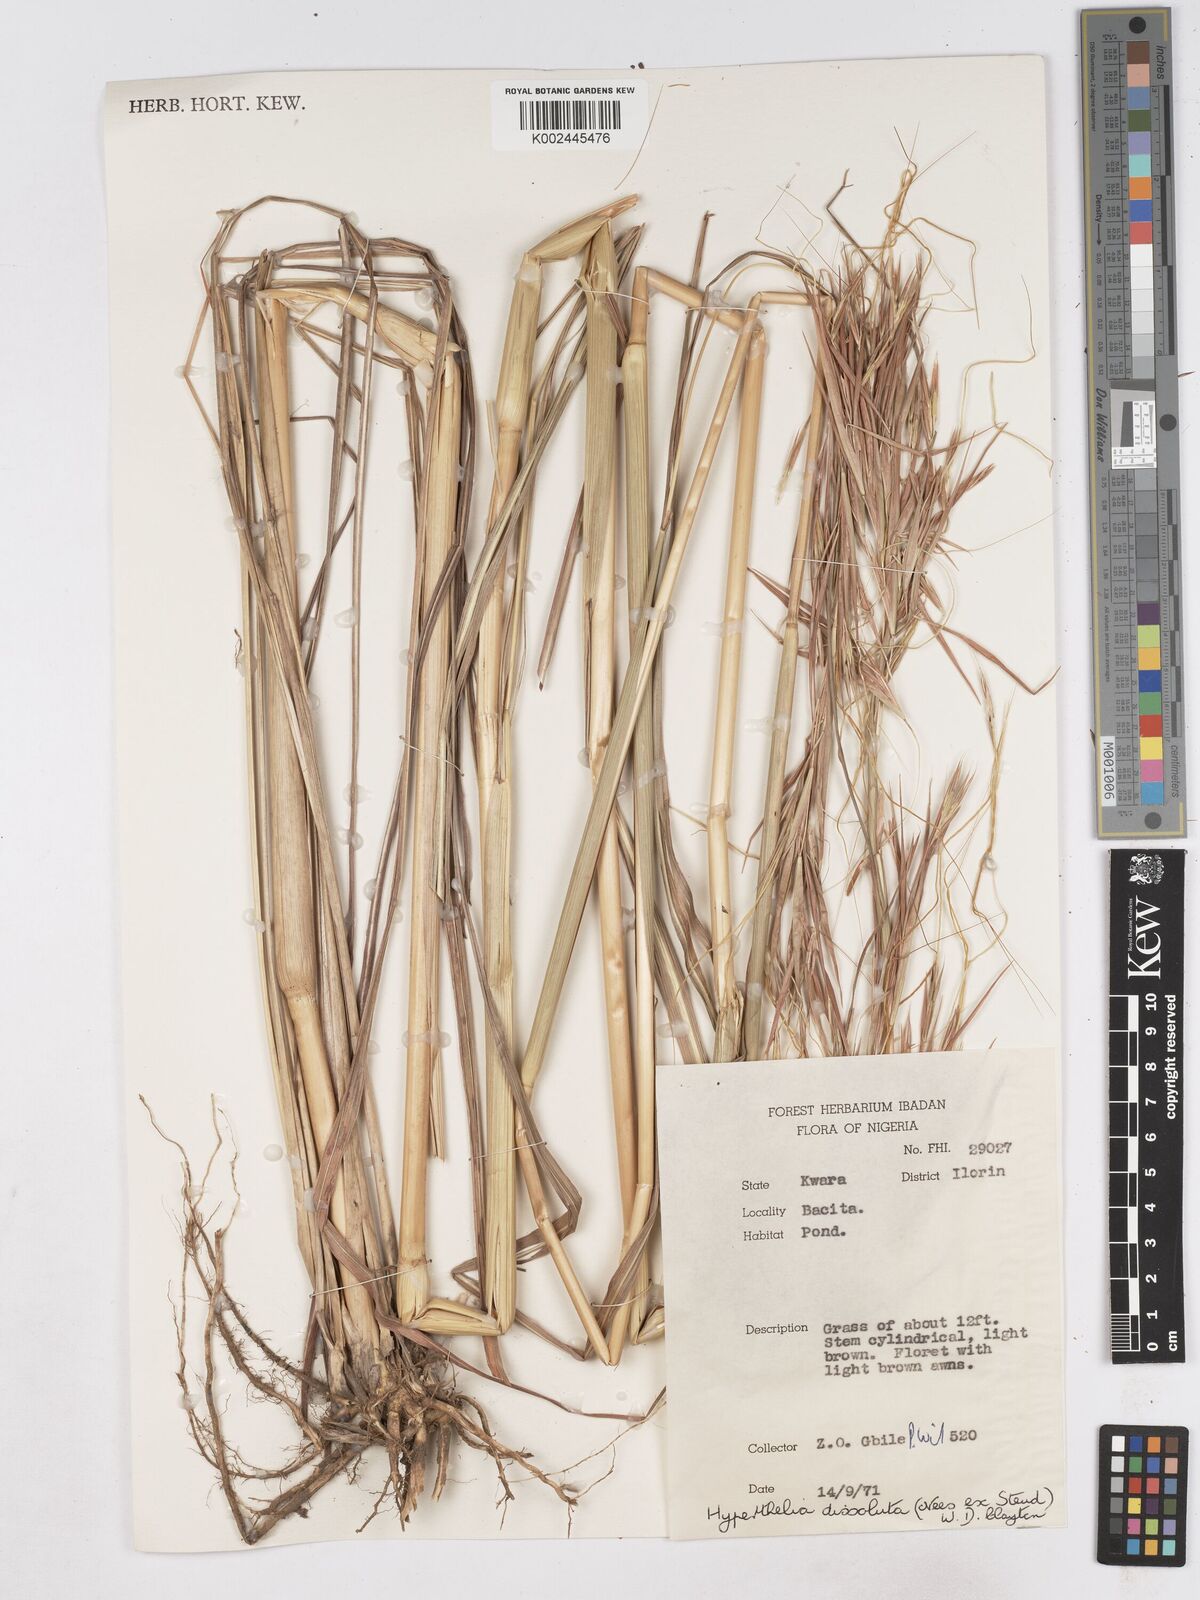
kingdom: Plantae
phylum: Tracheophyta
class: Liliopsida
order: Poales
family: Poaceae
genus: Hyperthelia
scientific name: Hyperthelia dissoluta
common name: Yellow thatching grass
